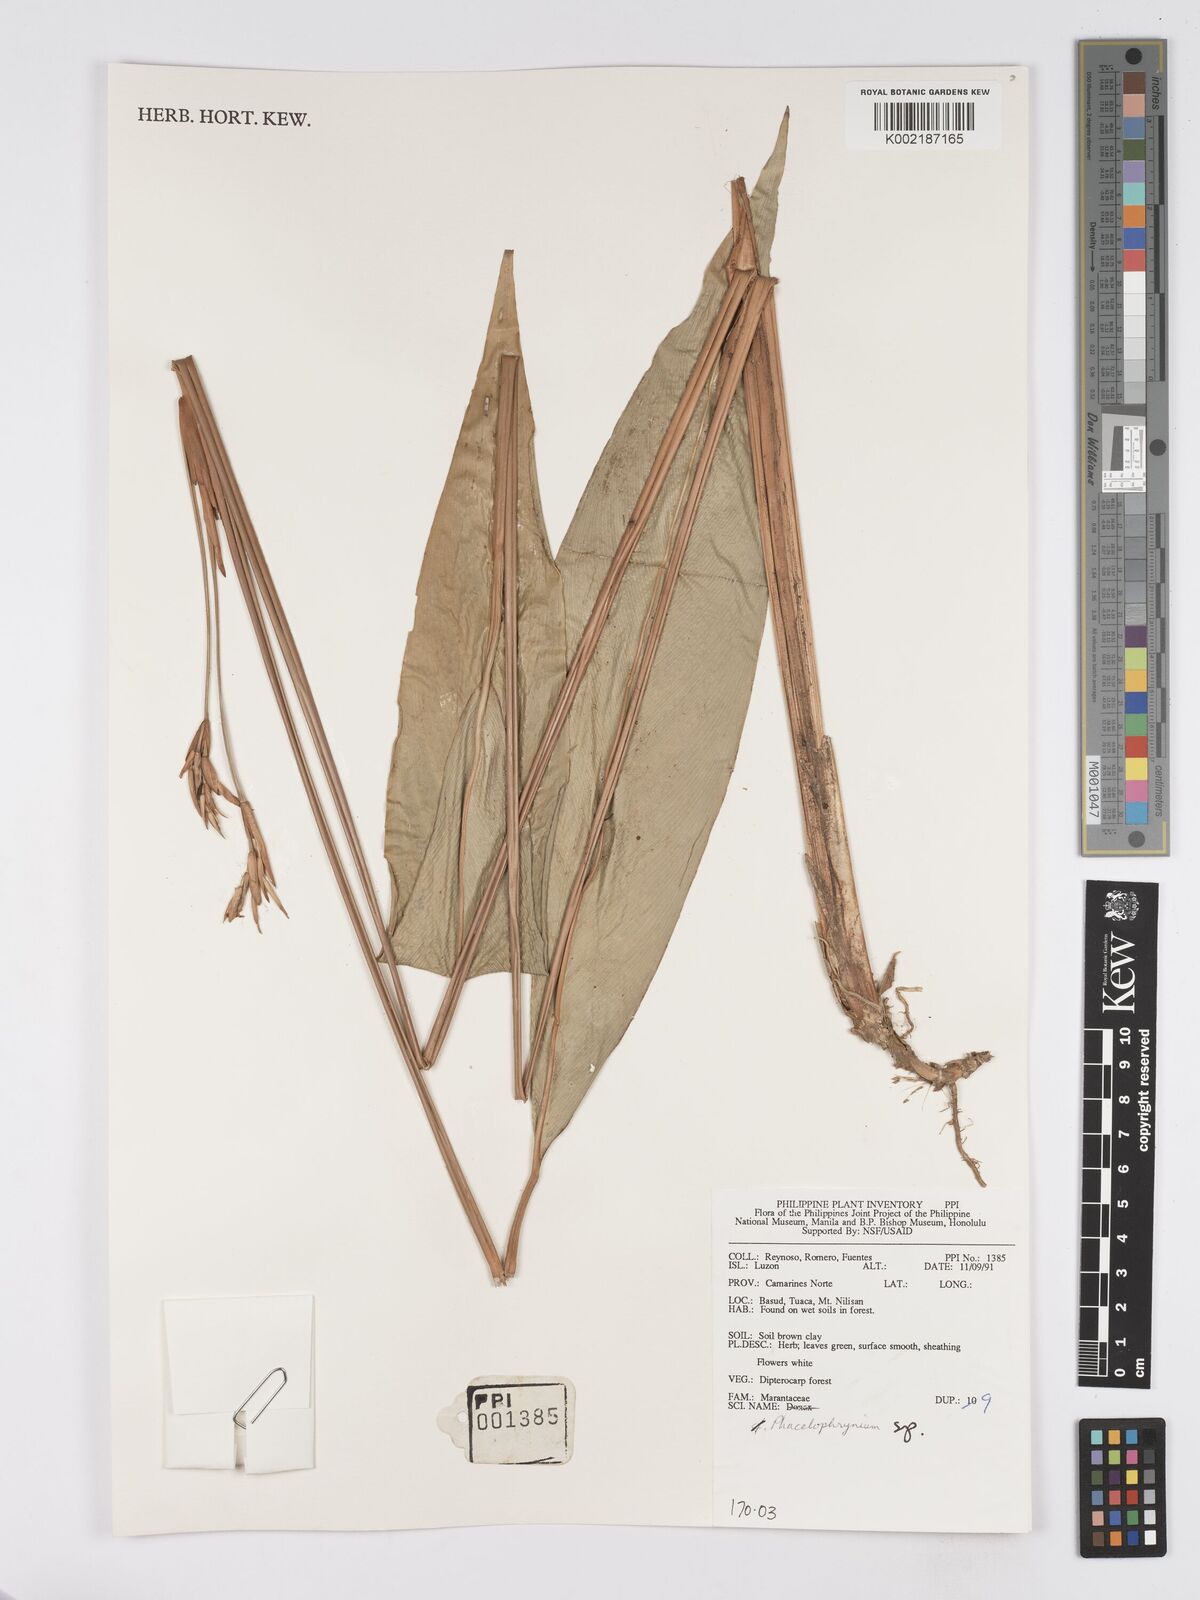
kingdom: Plantae
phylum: Tracheophyta
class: Liliopsida
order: Zingiberales
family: Marantaceae
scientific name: Marantaceae
